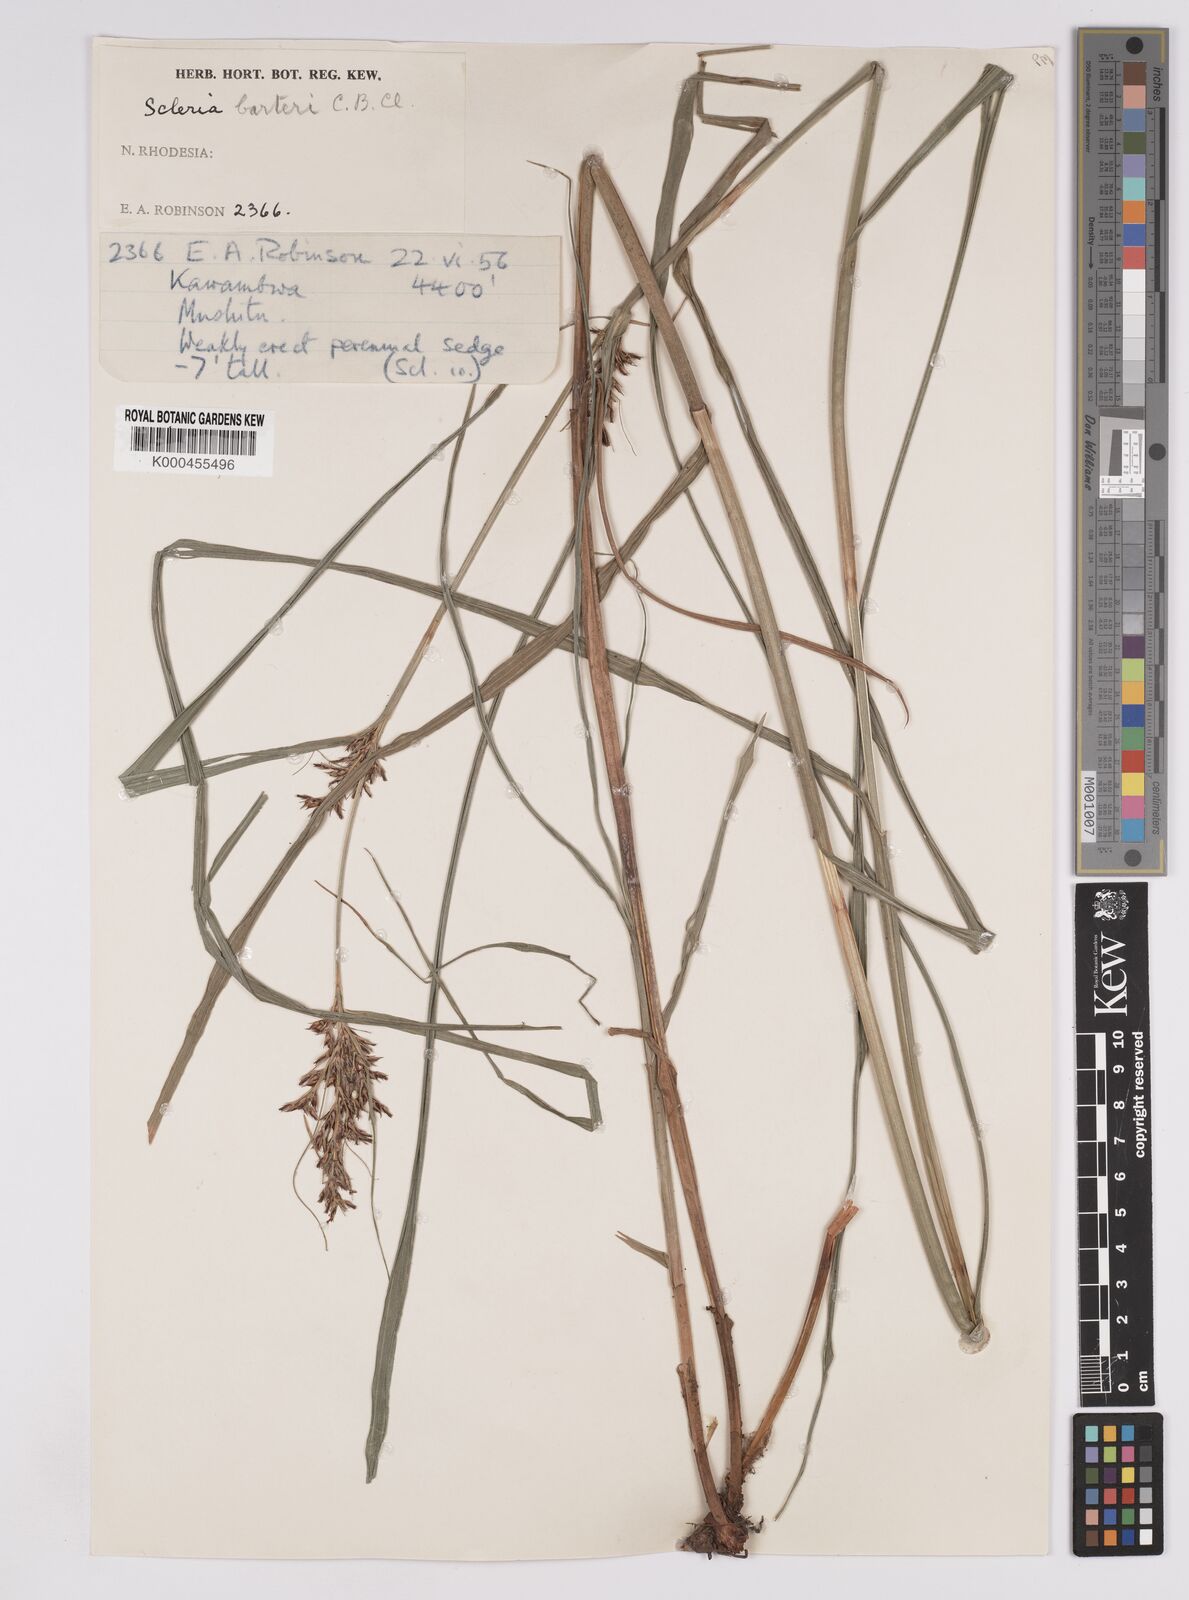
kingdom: Plantae
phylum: Tracheophyta
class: Liliopsida
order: Poales
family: Cyperaceae
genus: Scleria
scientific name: Scleria iostephana
